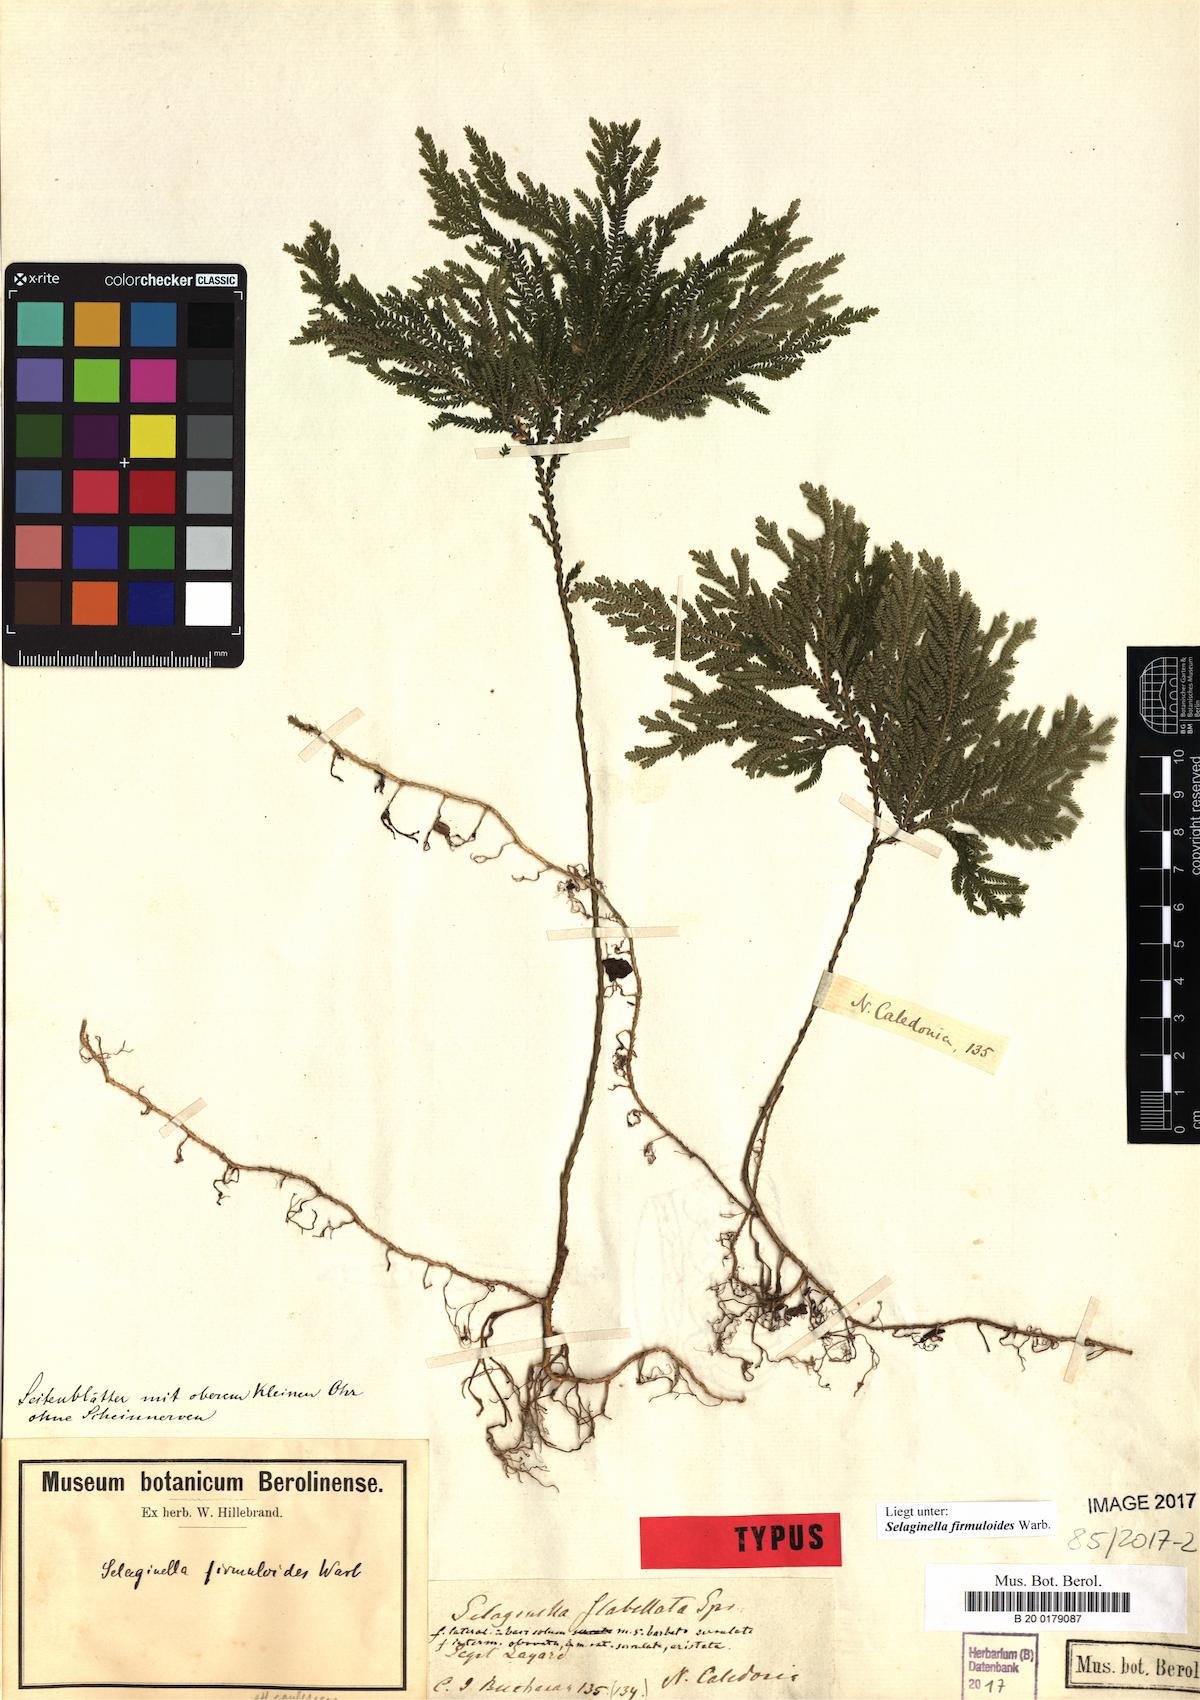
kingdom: Plantae
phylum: Tracheophyta
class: Lycopodiopsida
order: Selaginellales
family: Selaginellaceae
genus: Selaginella
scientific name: Selaginella firmuloides
